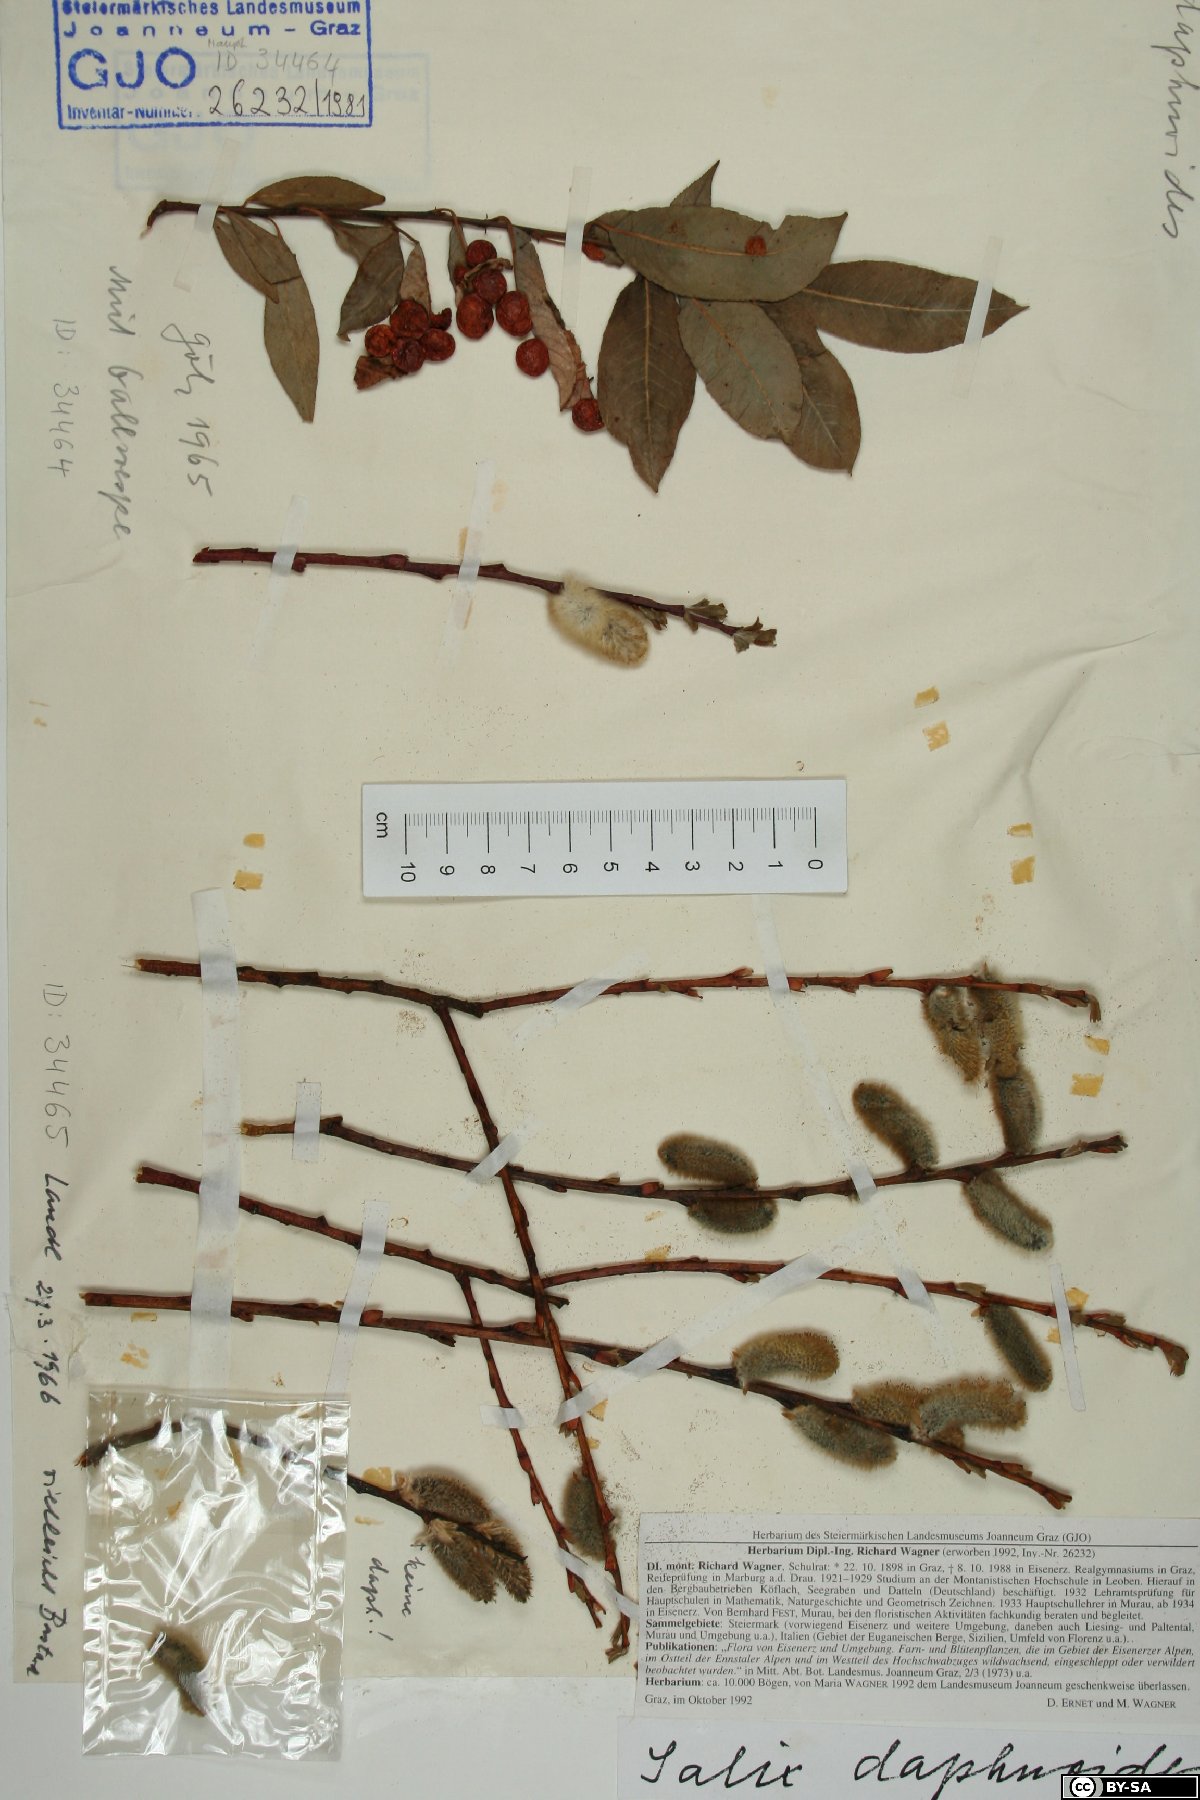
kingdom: Plantae
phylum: Tracheophyta
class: Magnoliopsida
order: Malpighiales
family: Salicaceae
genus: Salix
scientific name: Salix daphnoides
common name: European violet-willow
